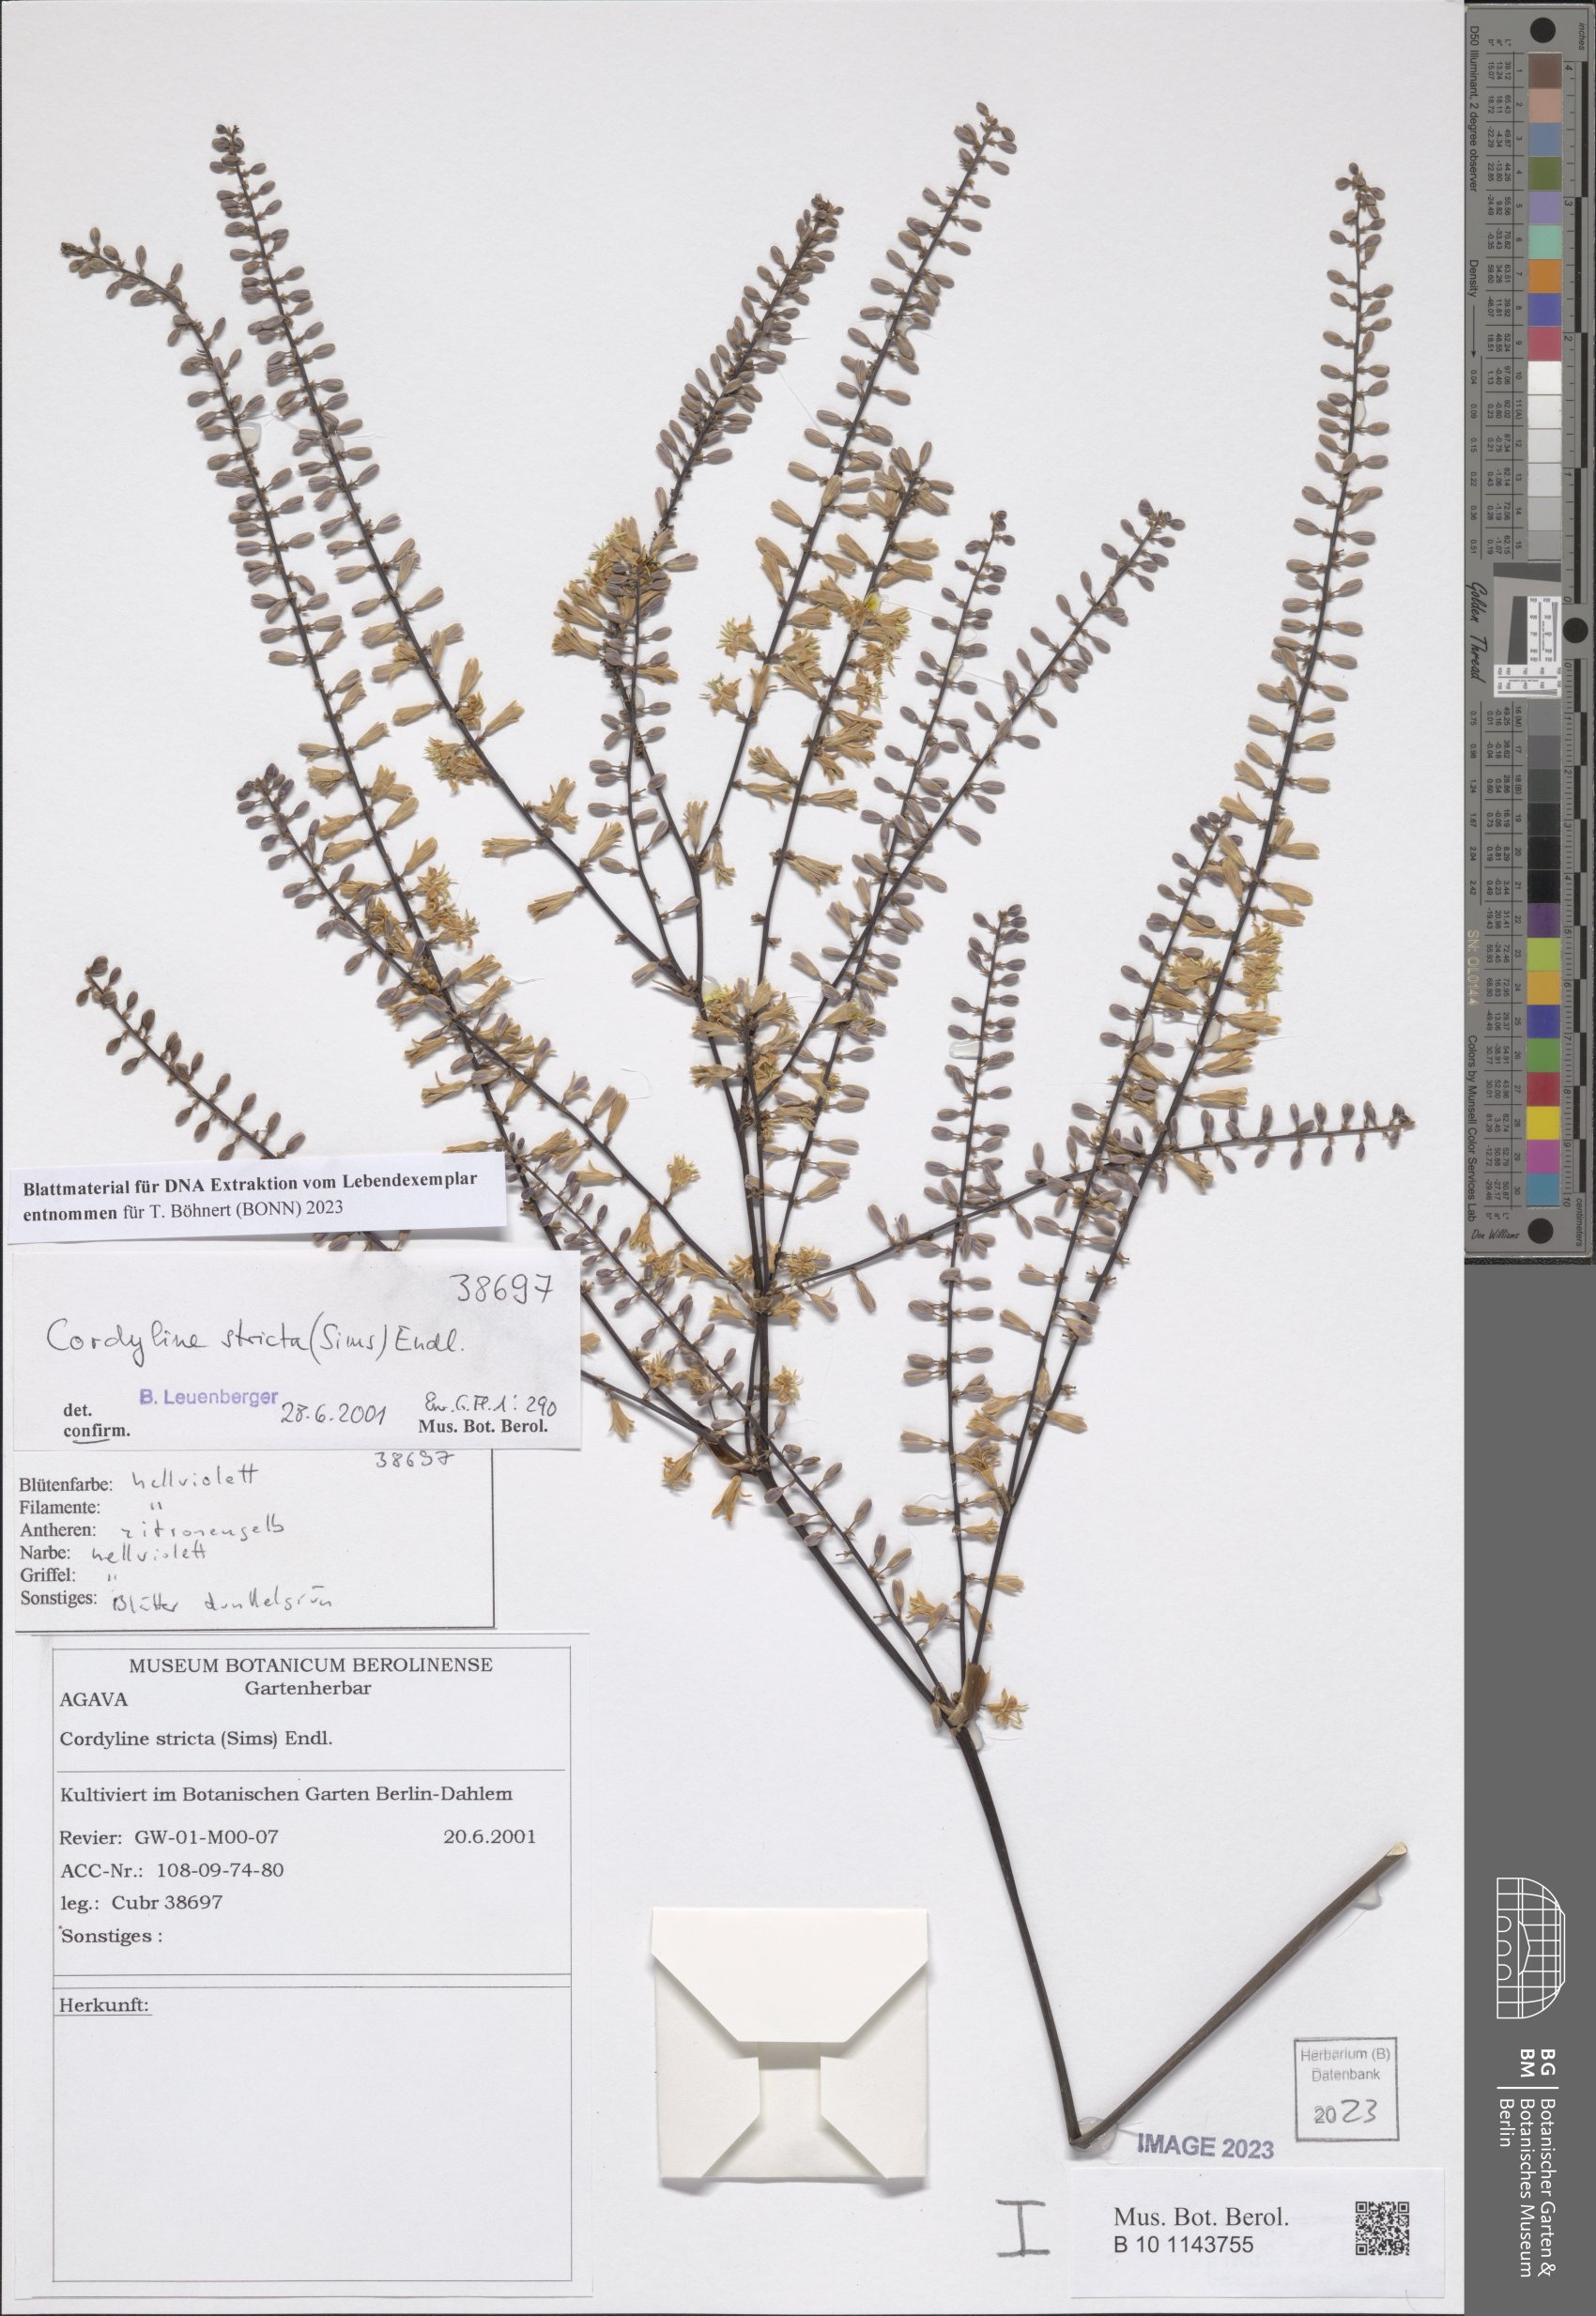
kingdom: Plantae
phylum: Tracheophyta
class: Liliopsida
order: Asparagales
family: Asparagaceae
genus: Cordyline
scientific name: Cordyline stricta
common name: Narrow-leaf palm-lily
